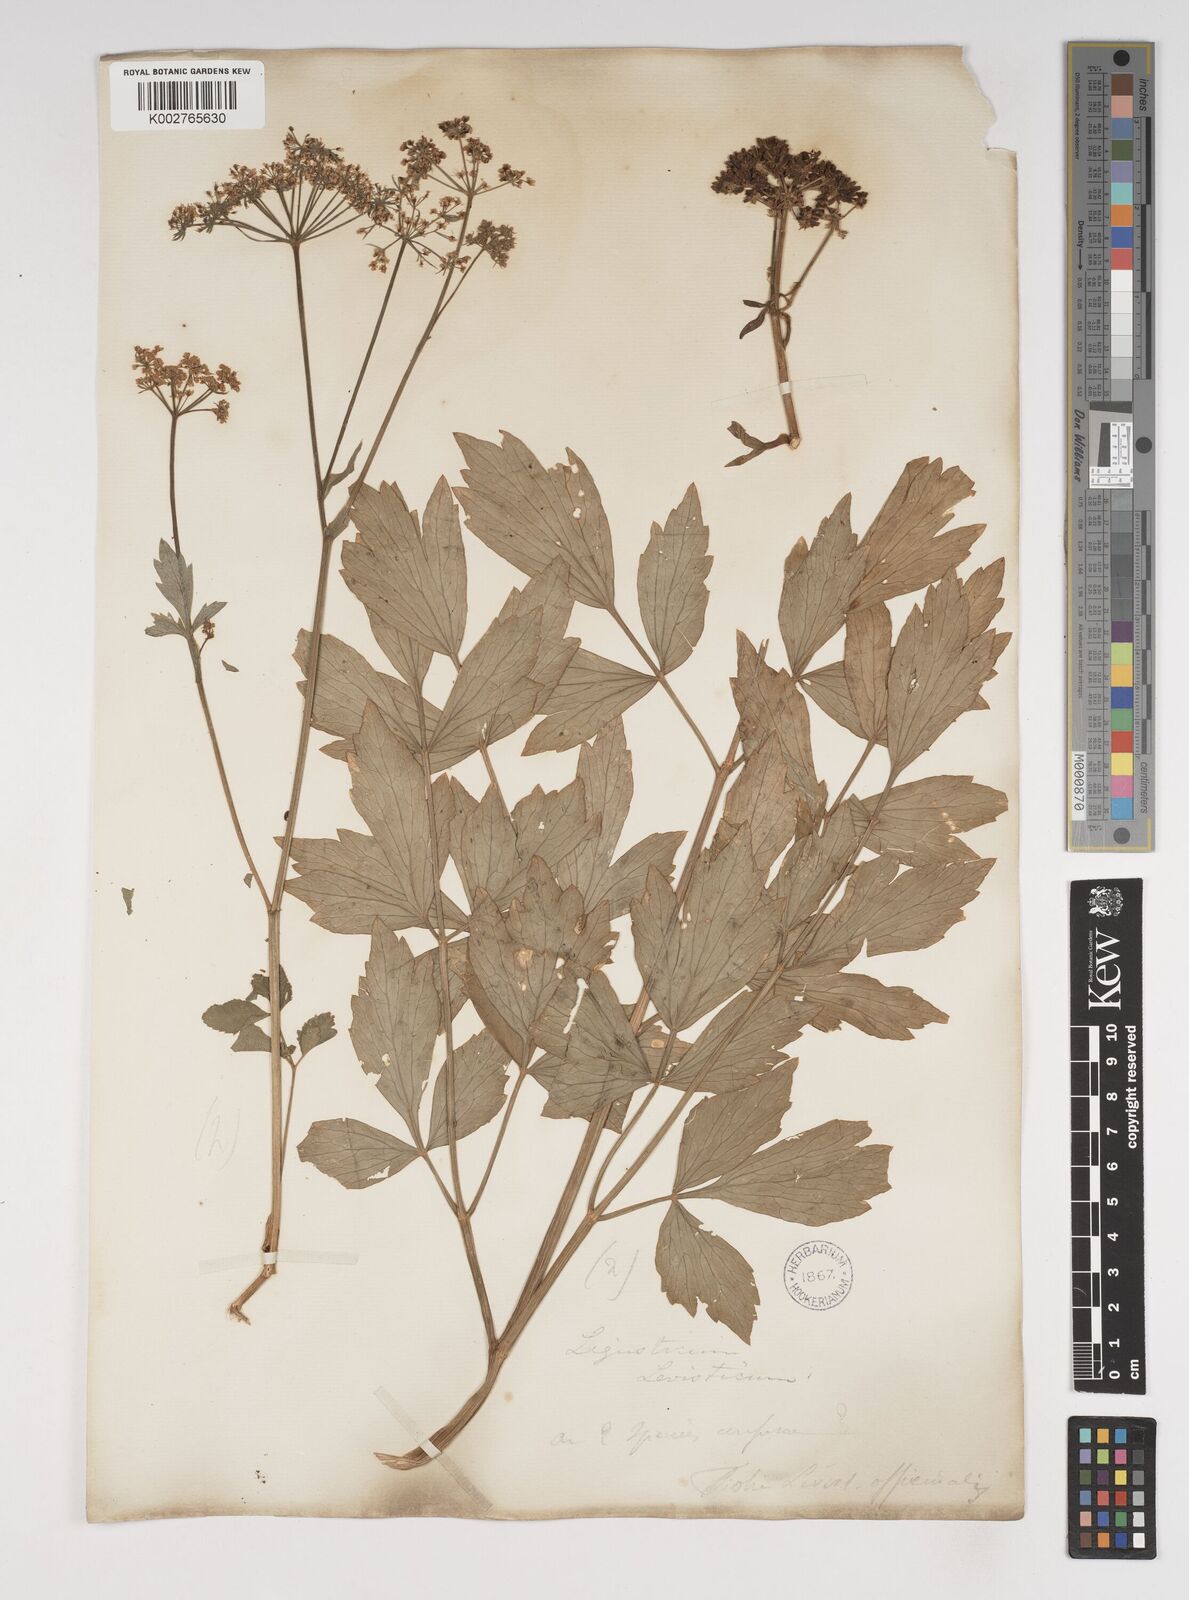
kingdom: Plantae
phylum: Tracheophyta
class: Magnoliopsida
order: Apiales
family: Apiaceae
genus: Levisticum
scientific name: Levisticum officinale
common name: Lovage
